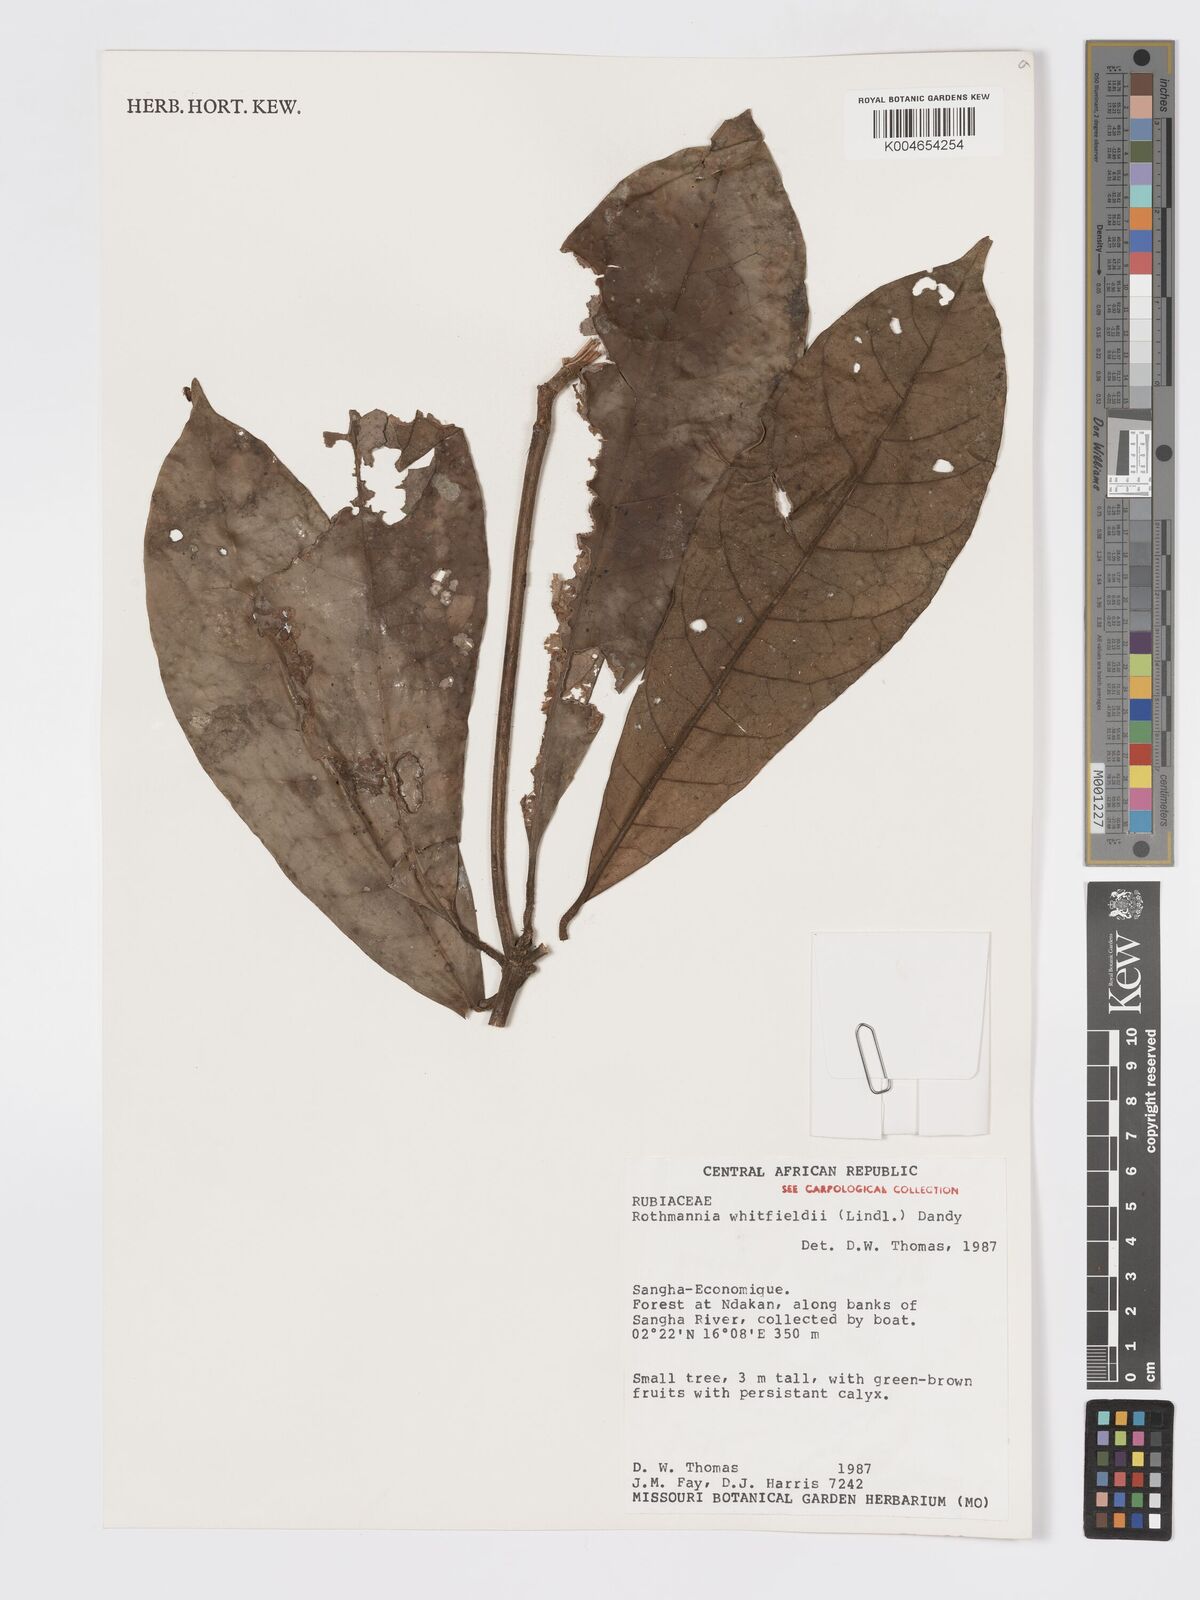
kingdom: Plantae
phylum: Tracheophyta
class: Magnoliopsida
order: Gentianales
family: Rubiaceae
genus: Rothmannia
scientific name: Rothmannia whitfieldii
